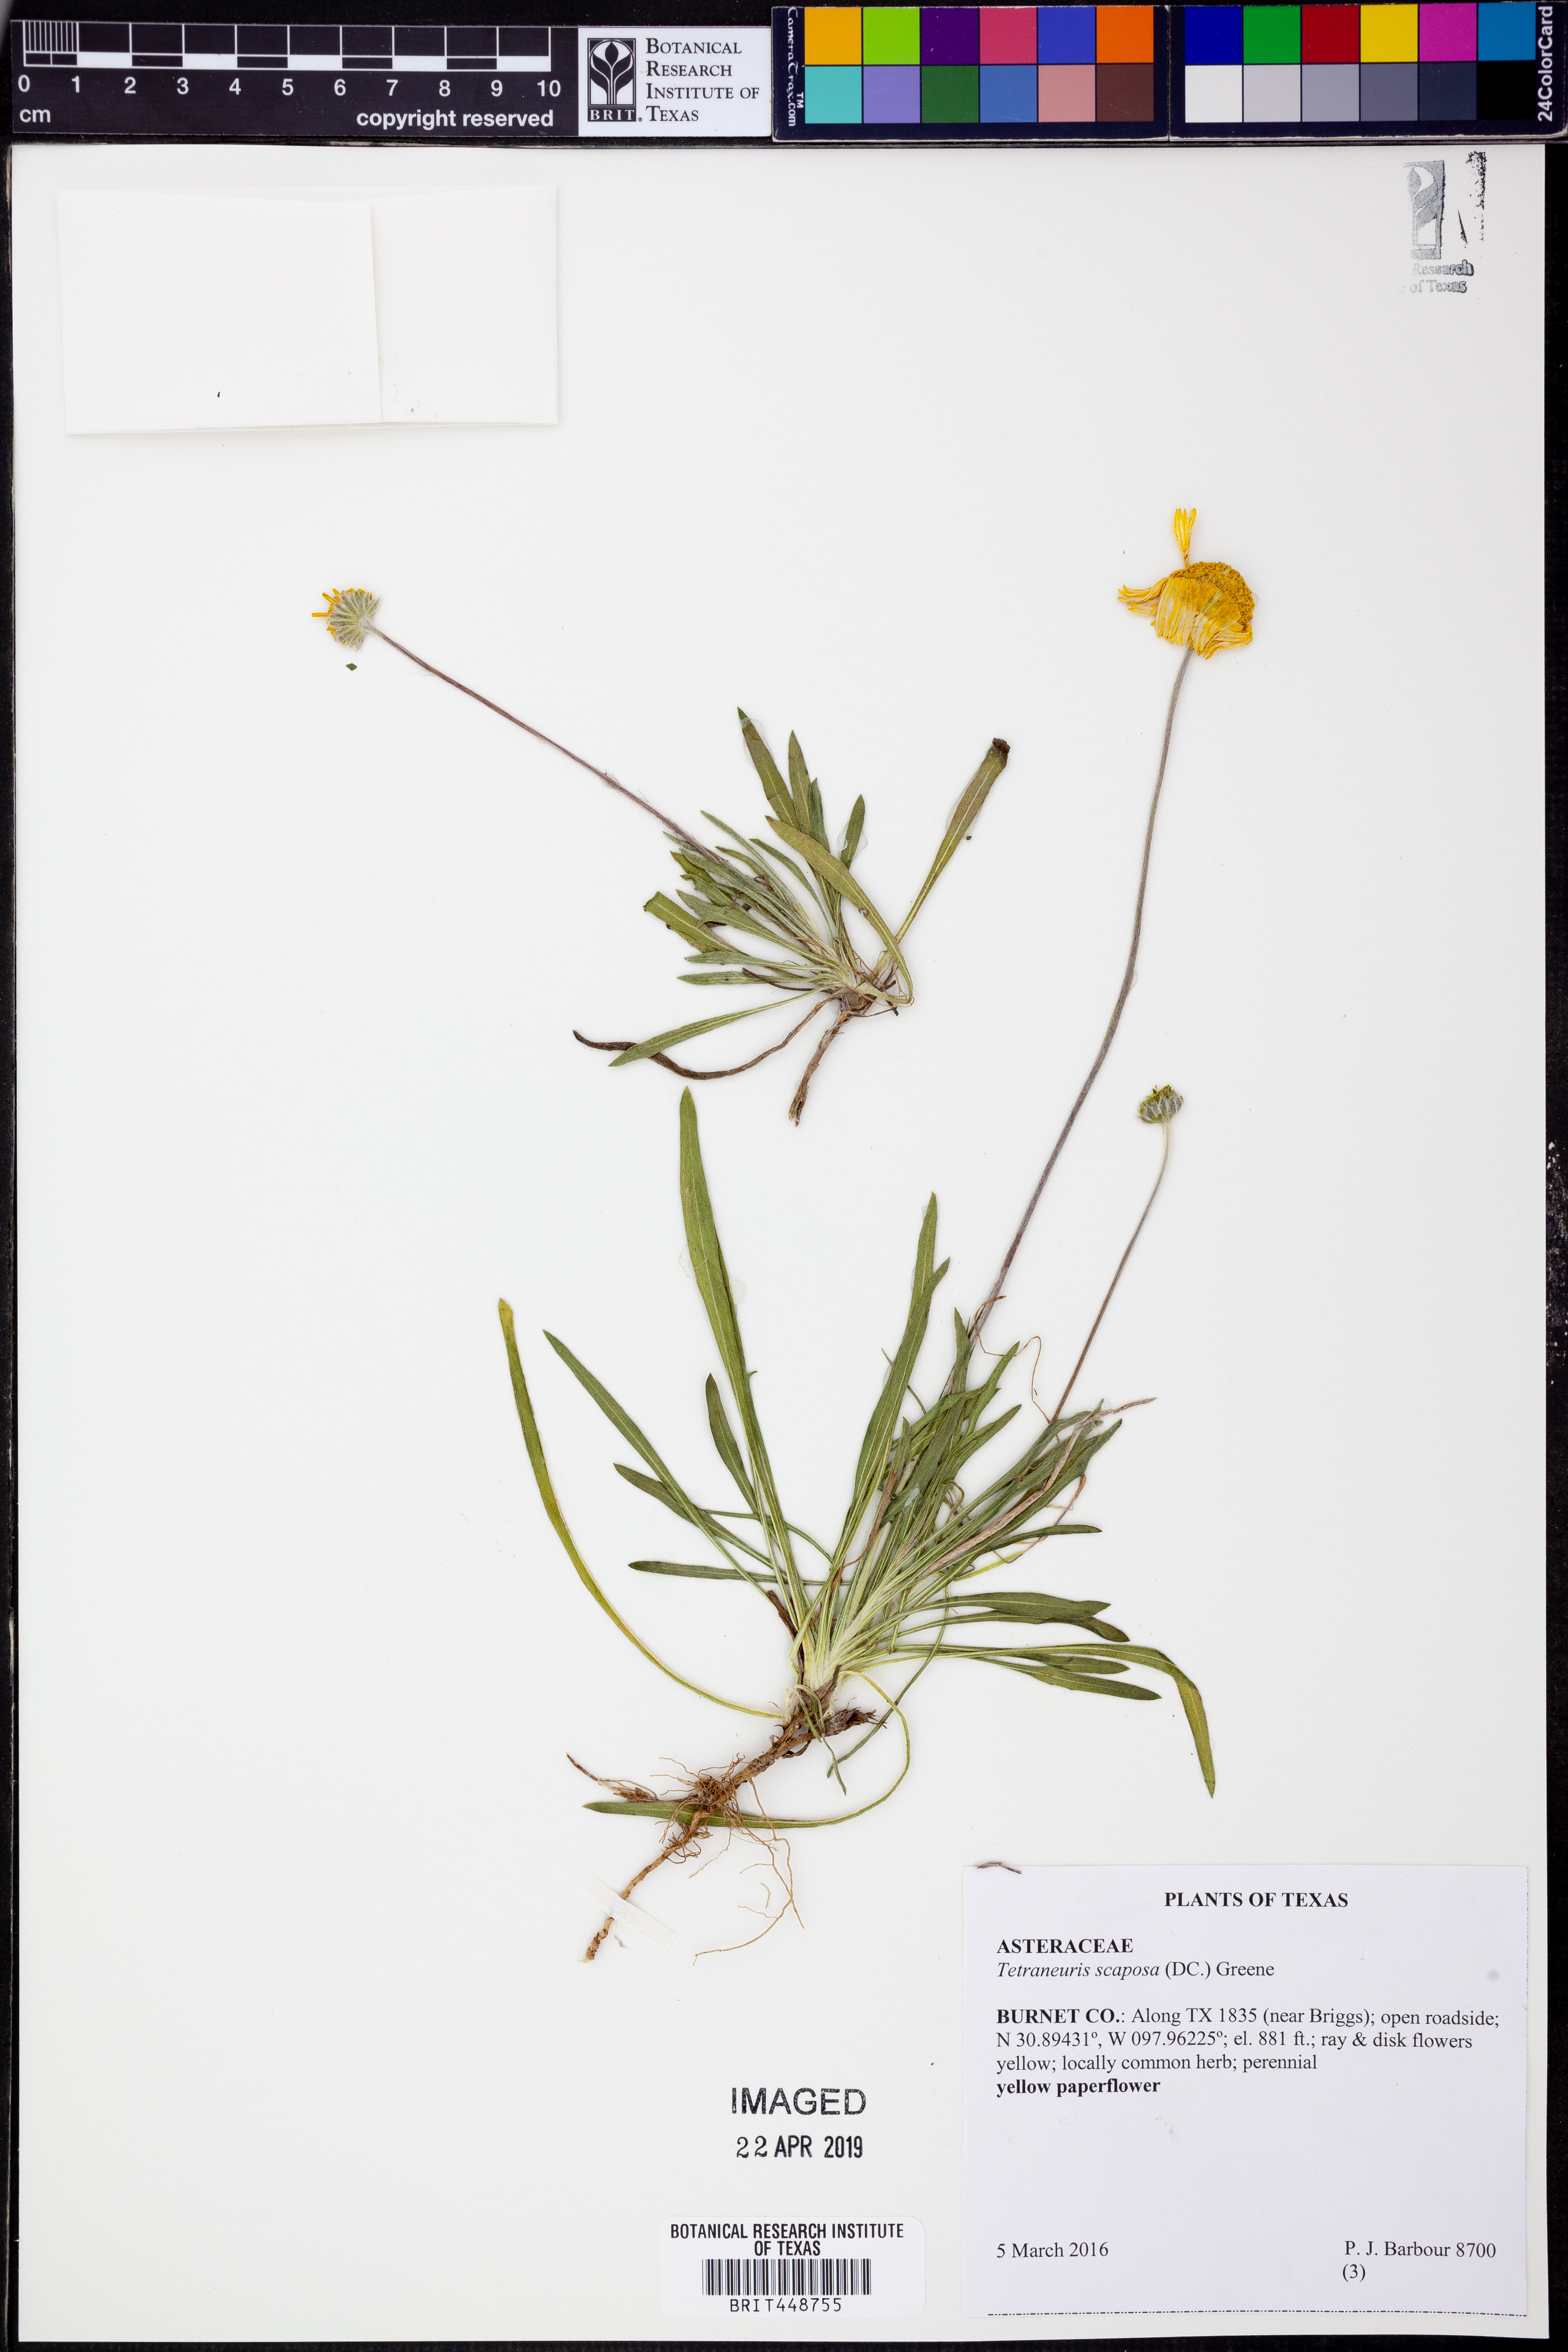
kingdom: Plantae
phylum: Tracheophyta
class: Magnoliopsida
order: Asterales
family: Asteraceae
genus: Tetraneuris
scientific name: Tetraneuris scaposa
